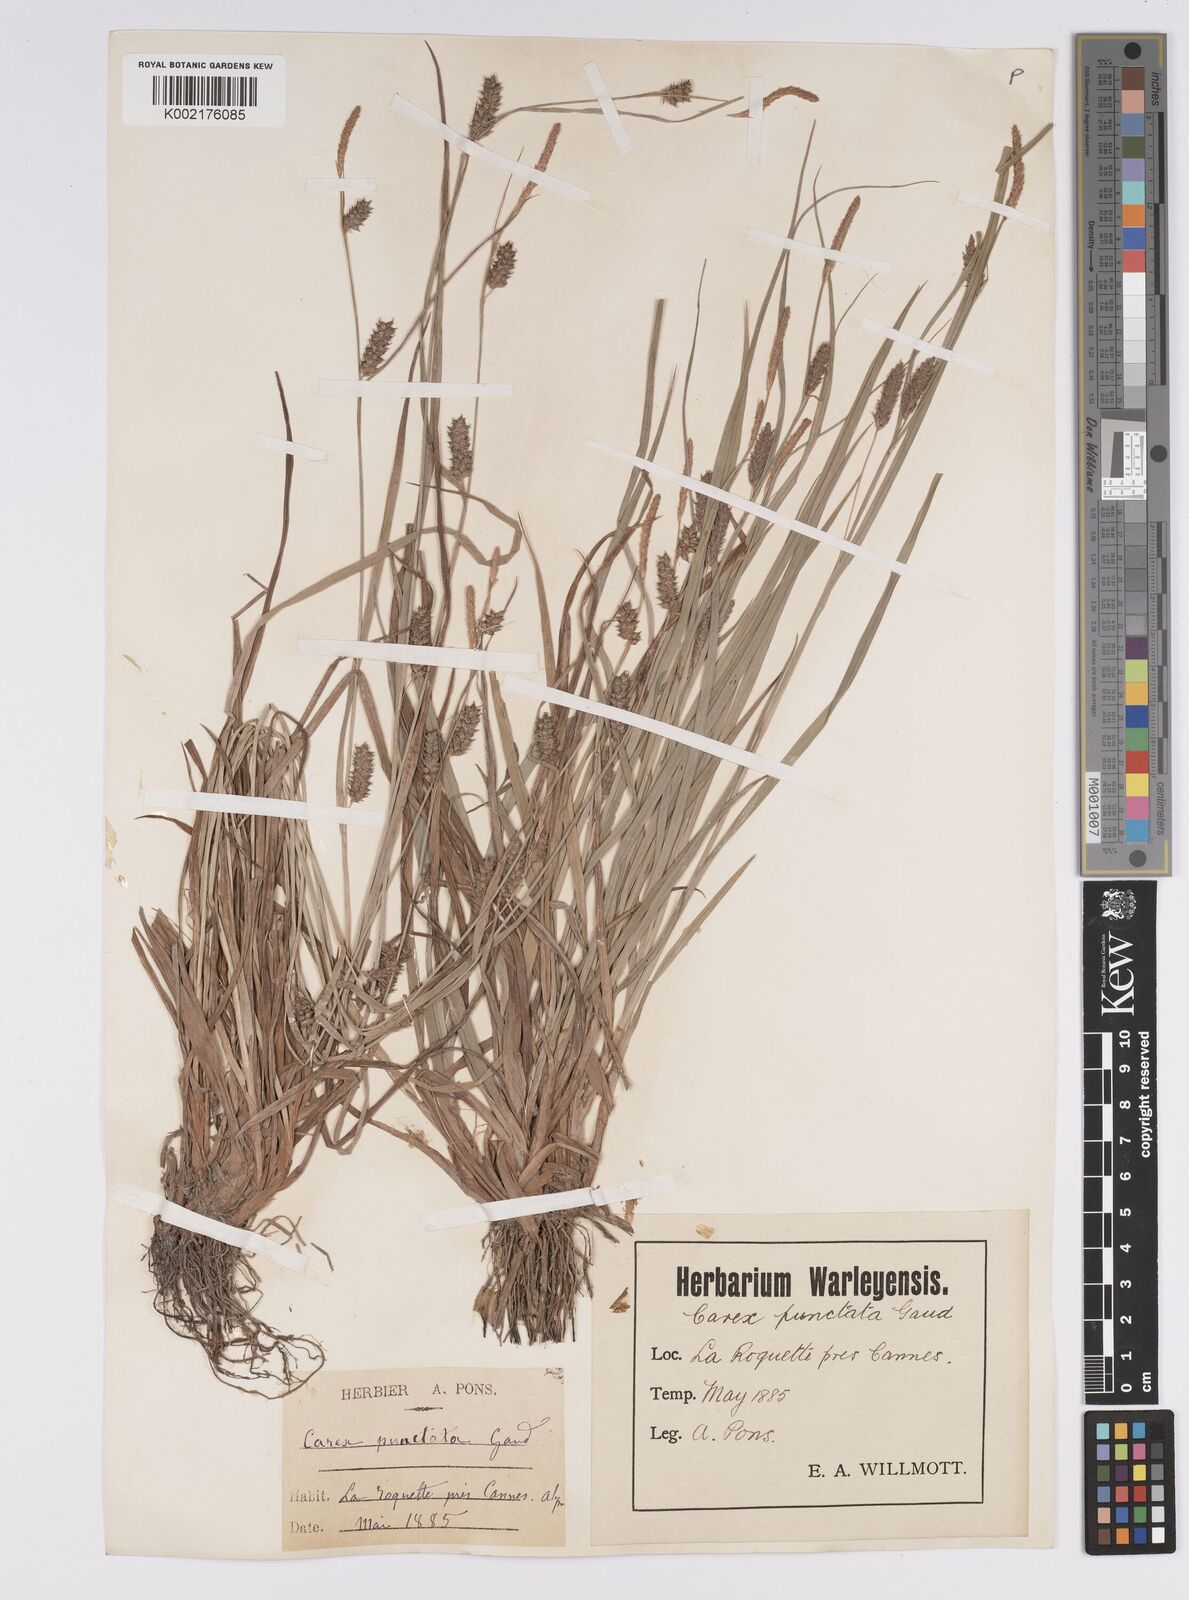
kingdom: Plantae
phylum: Tracheophyta
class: Liliopsida
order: Poales
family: Cyperaceae
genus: Carex
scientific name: Carex punctata
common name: Dotted sedge
